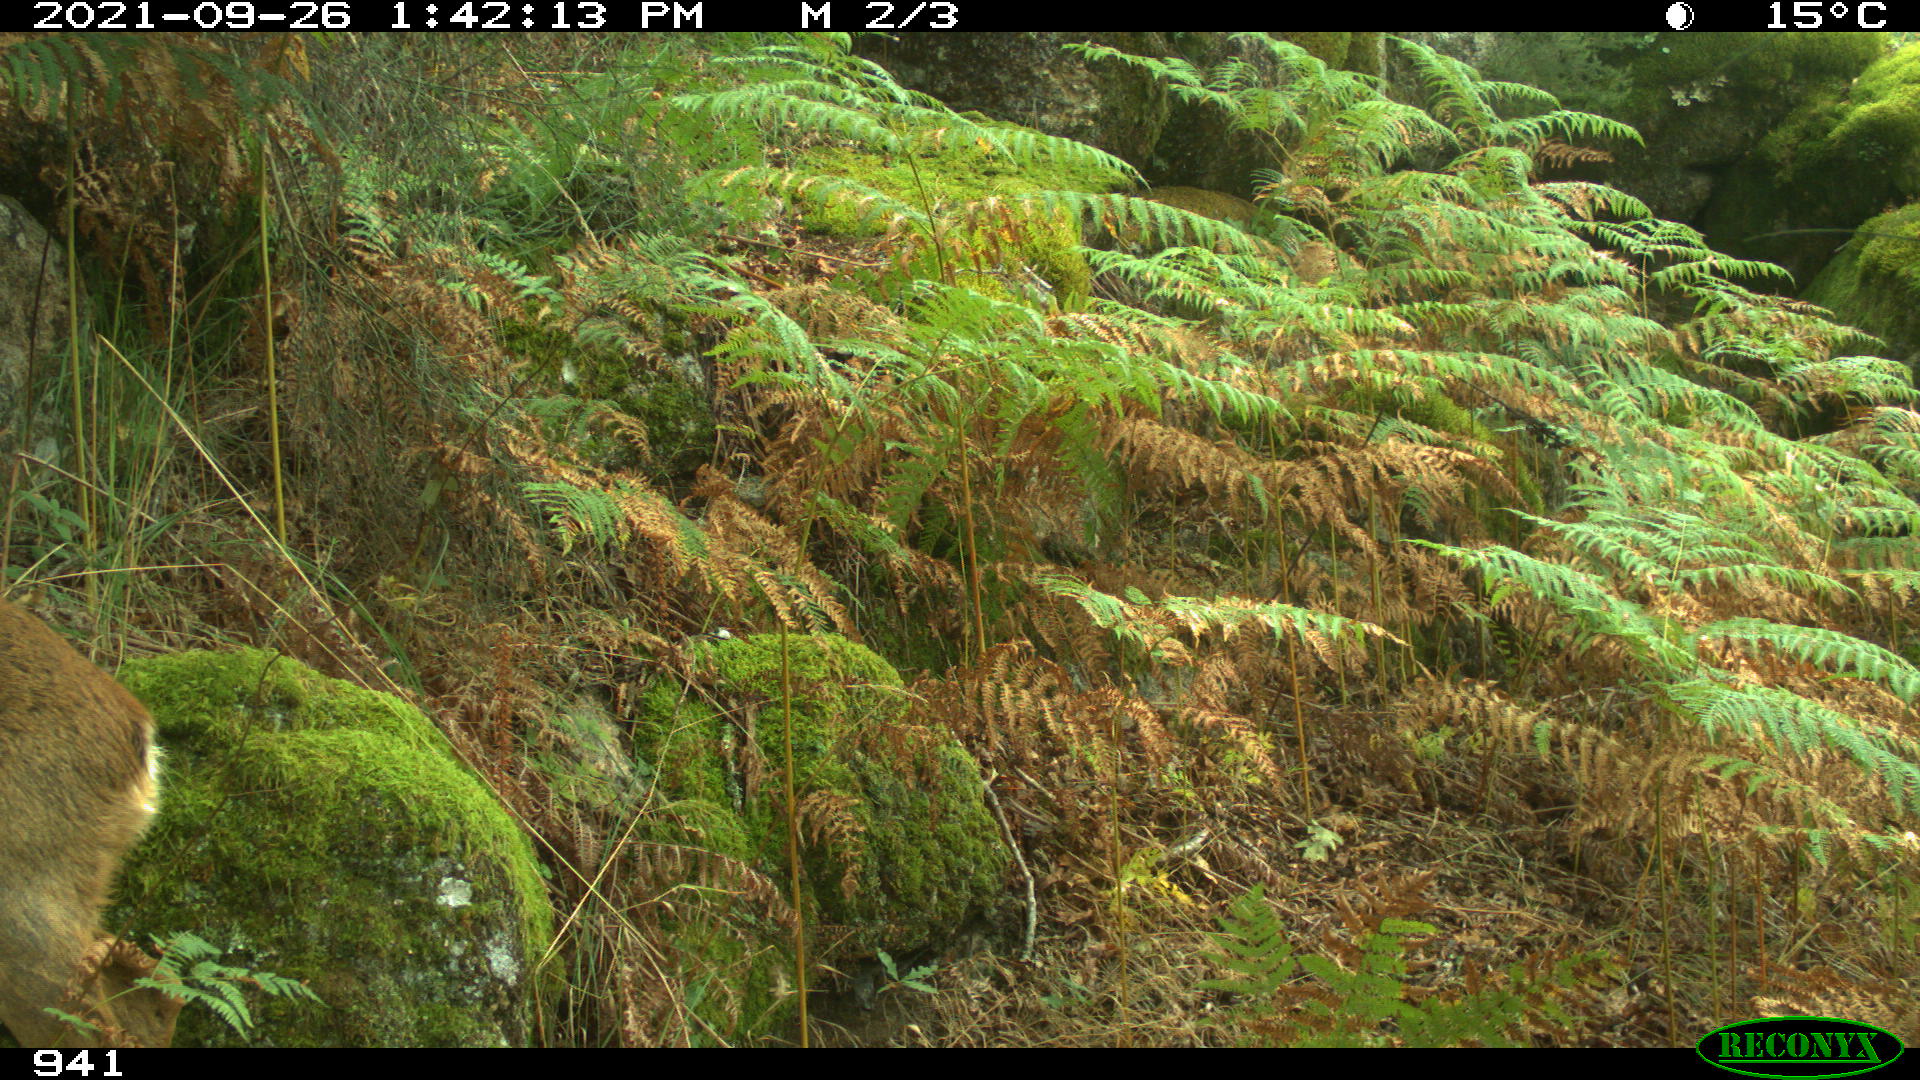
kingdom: Animalia
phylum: Chordata
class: Mammalia
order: Artiodactyla
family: Cervidae
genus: Capreolus
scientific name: Capreolus capreolus
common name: Western roe deer
